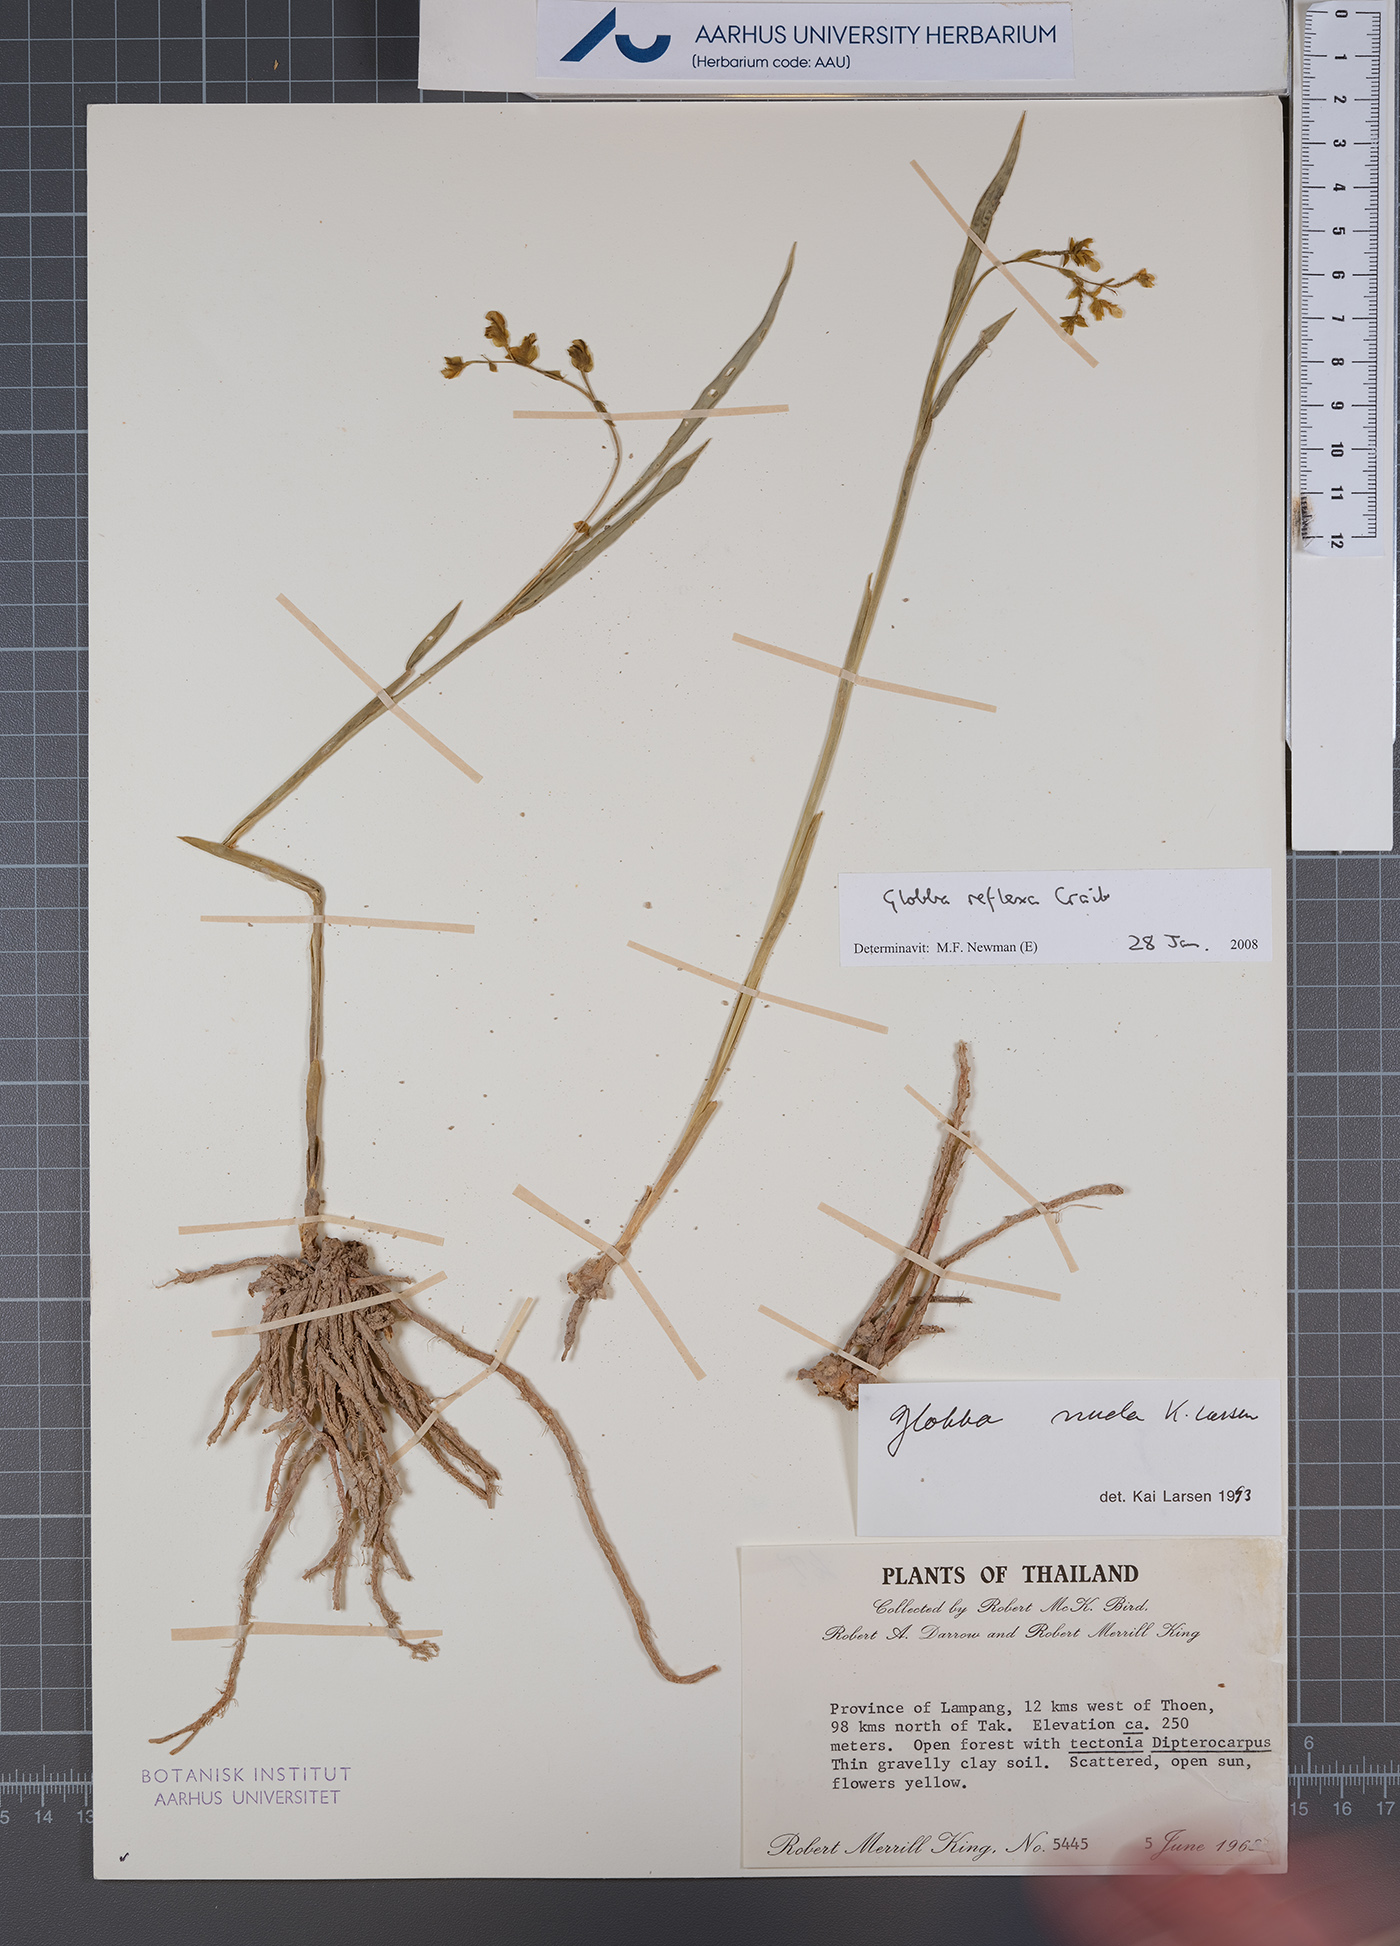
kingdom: Plantae
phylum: Tracheophyta
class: Liliopsida
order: Zingiberales
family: Zingiberaceae
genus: Globba
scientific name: Globba reflexa
